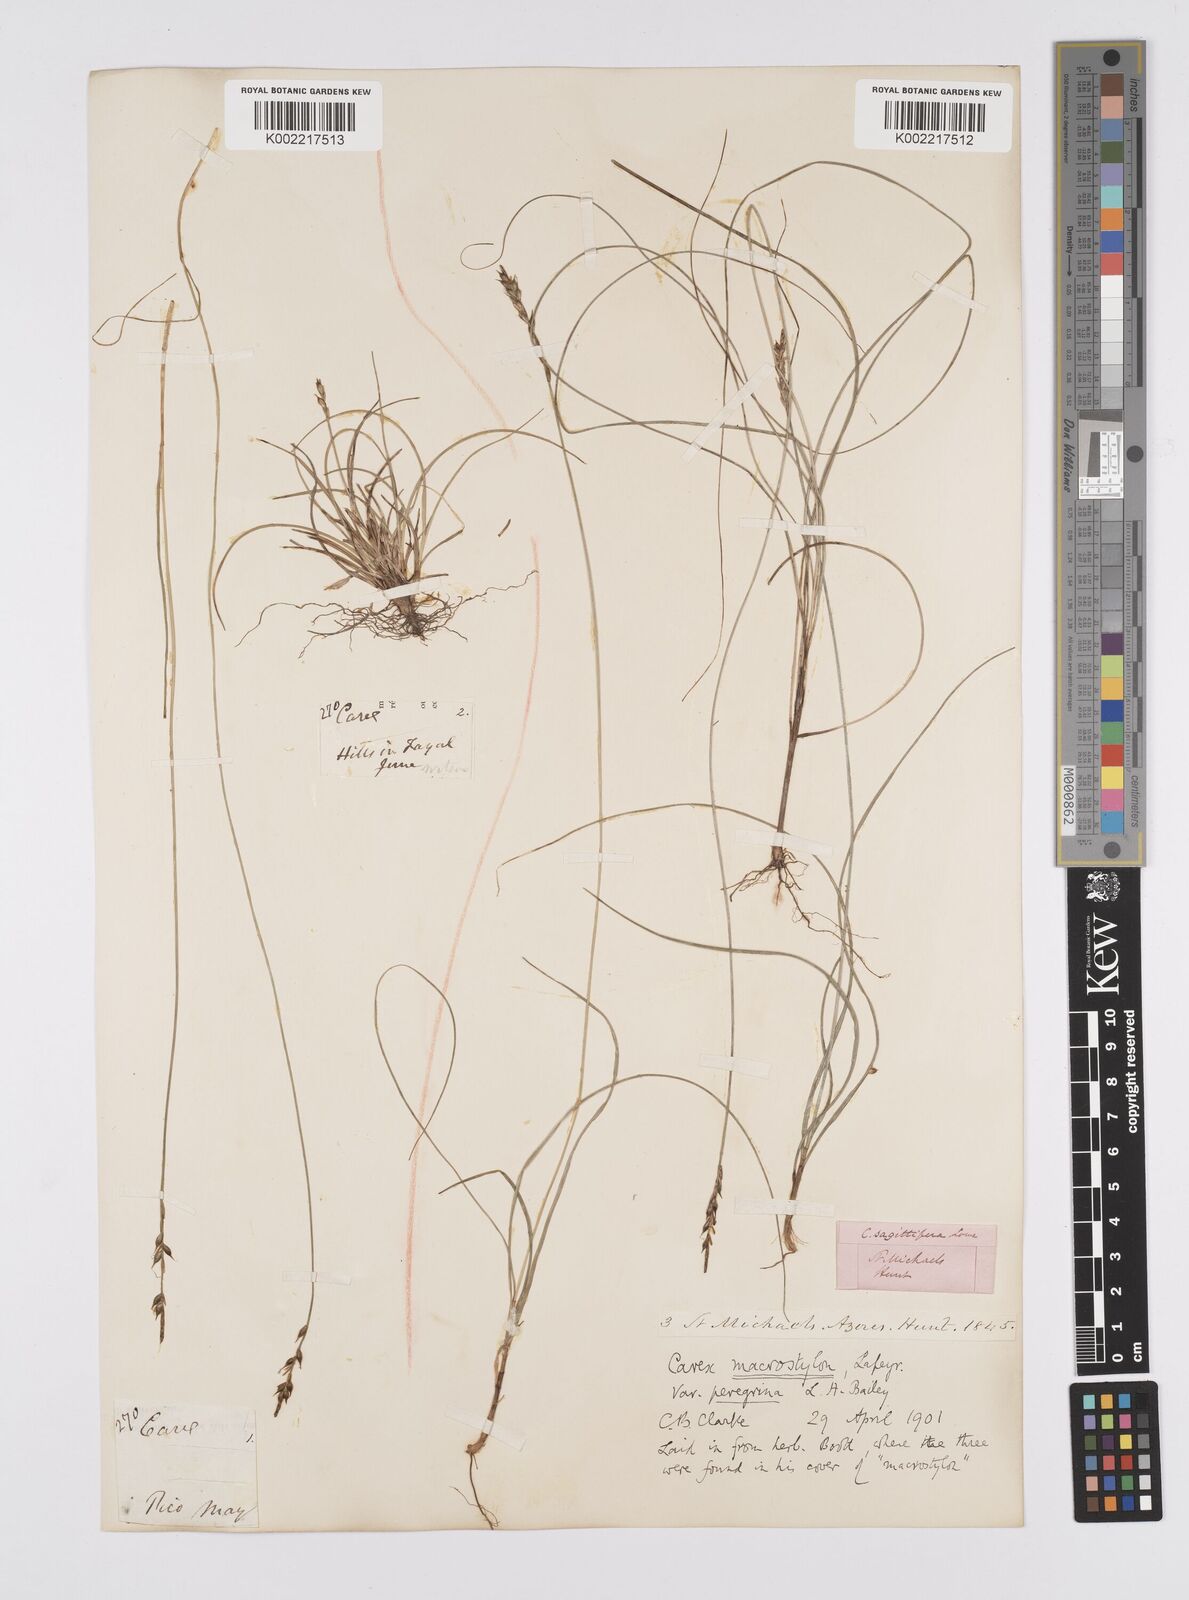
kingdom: Plantae
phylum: Tracheophyta
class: Liliopsida
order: Poales
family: Cyperaceae
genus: Carex
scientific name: Carex peregrina
